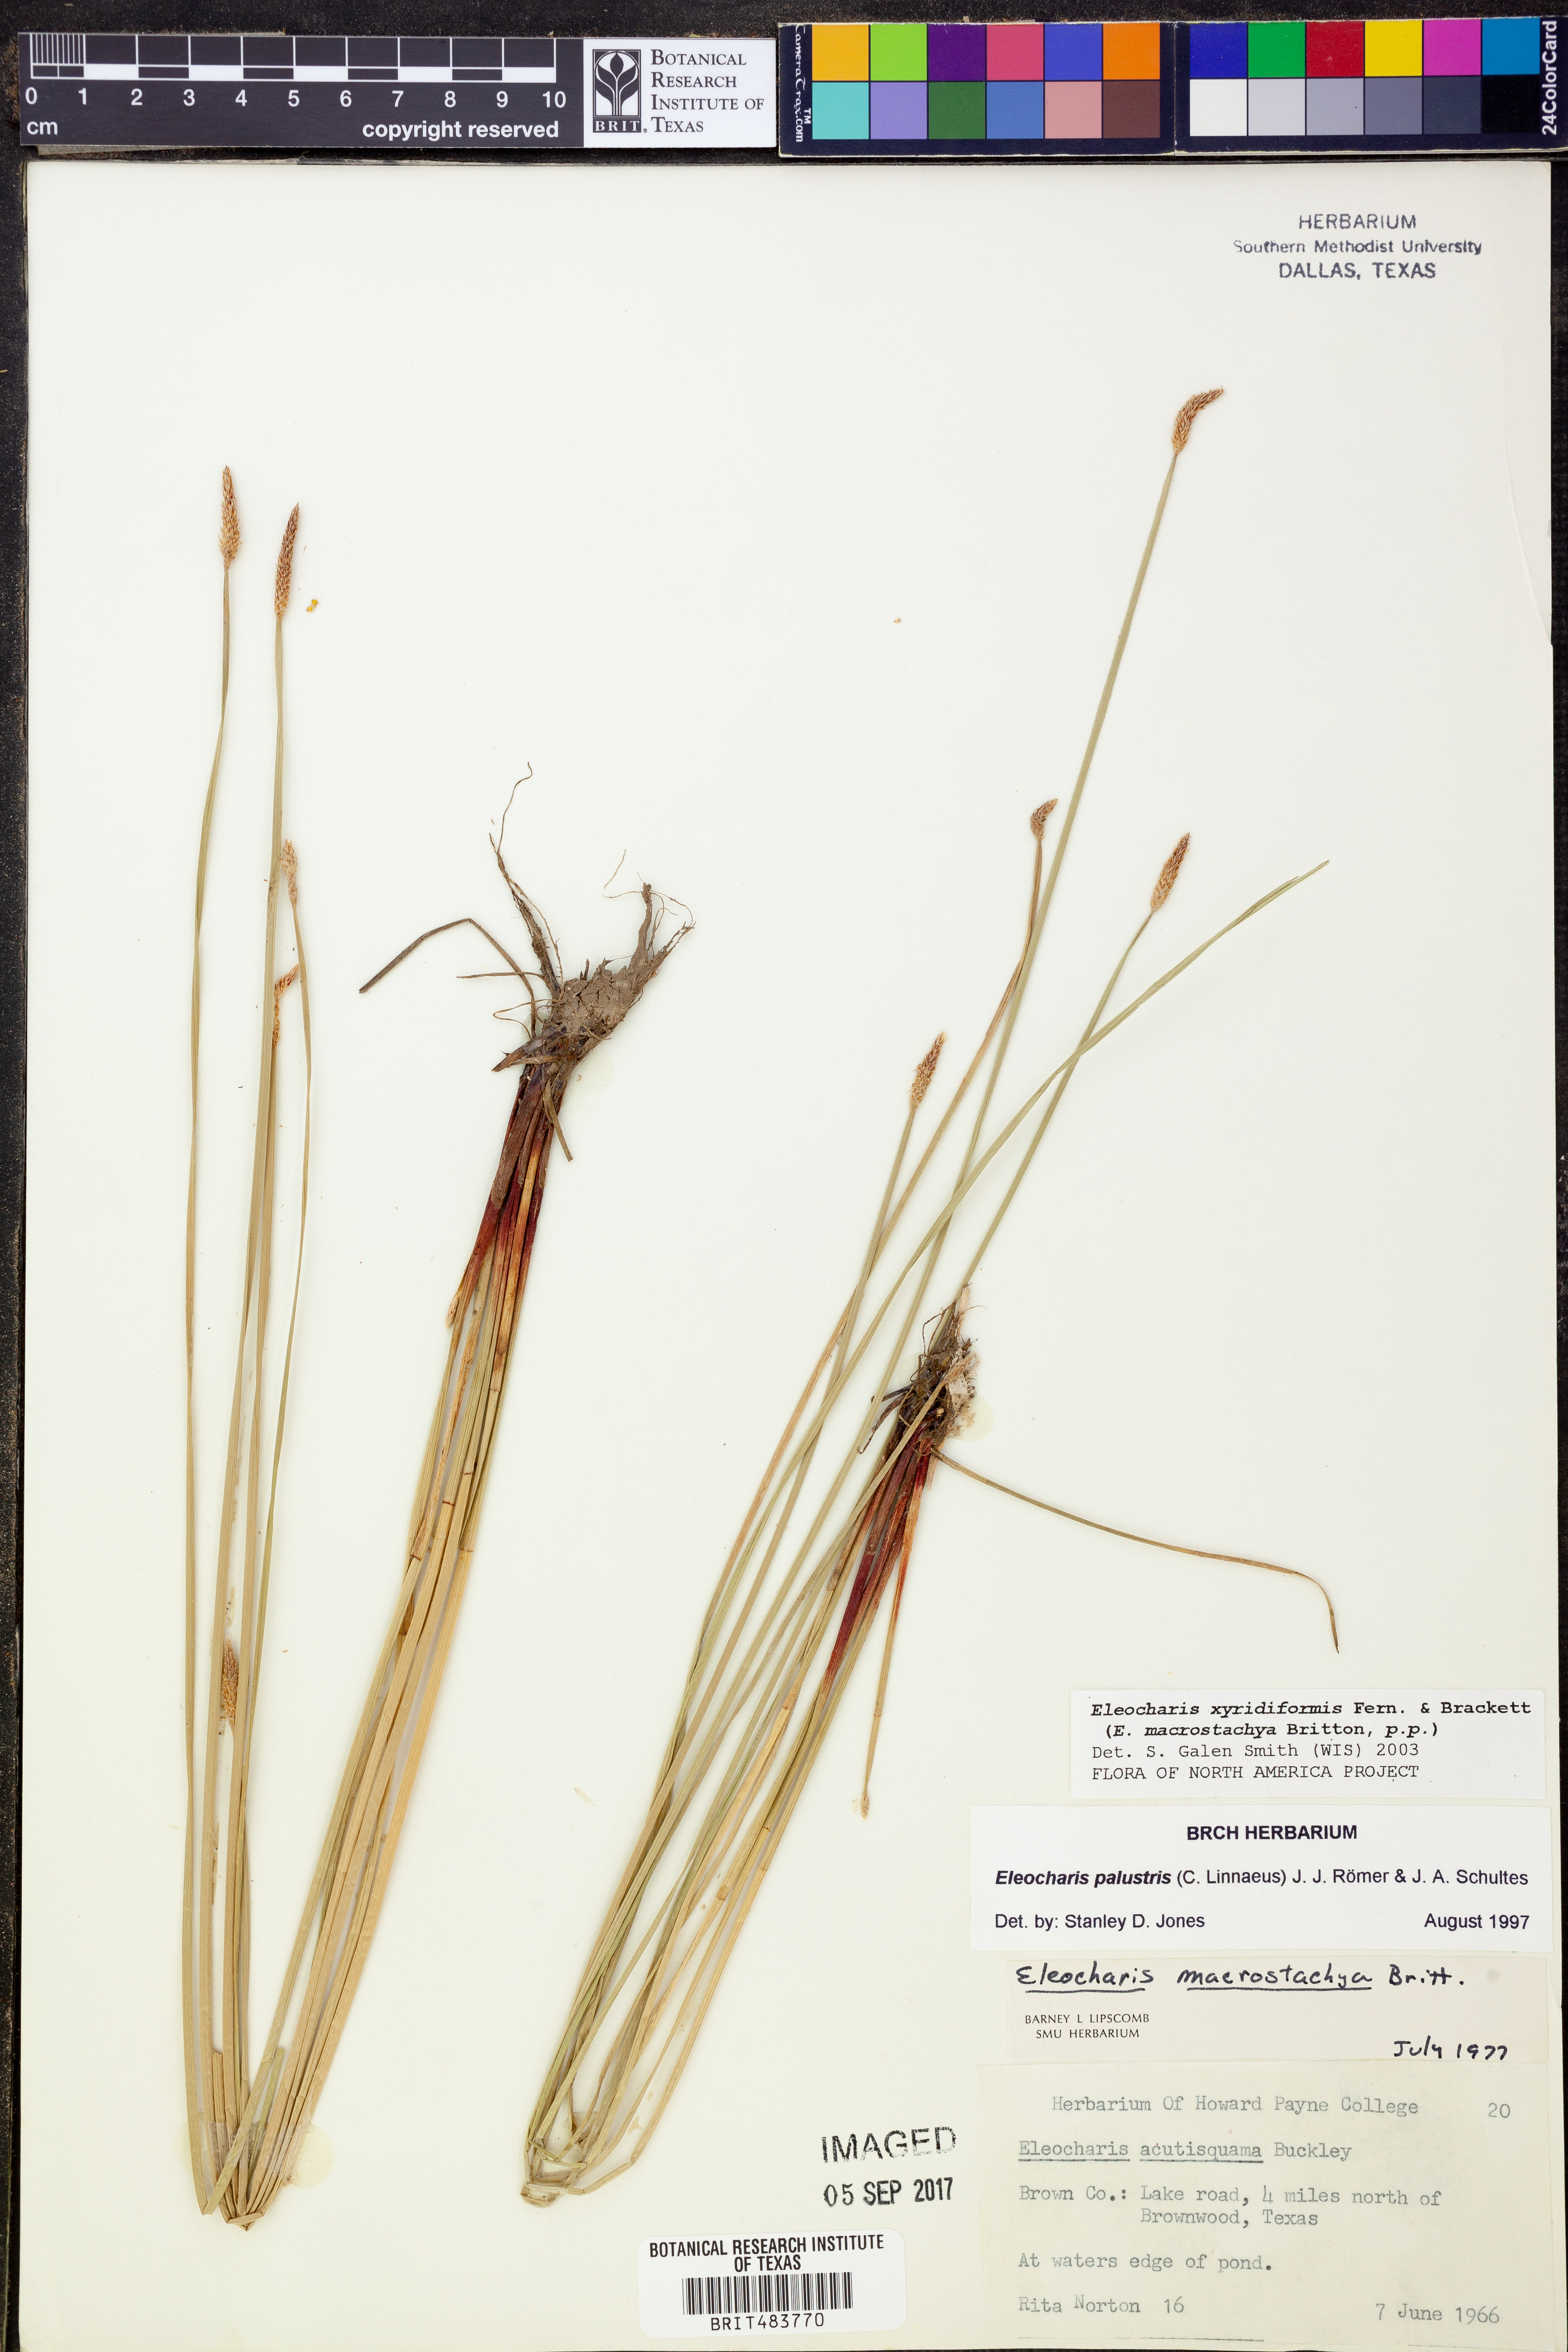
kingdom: Plantae
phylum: Tracheophyta
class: Liliopsida
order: Poales
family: Cyperaceae
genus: Eleocharis
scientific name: Eleocharis macrostachya
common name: Pale spikerush
